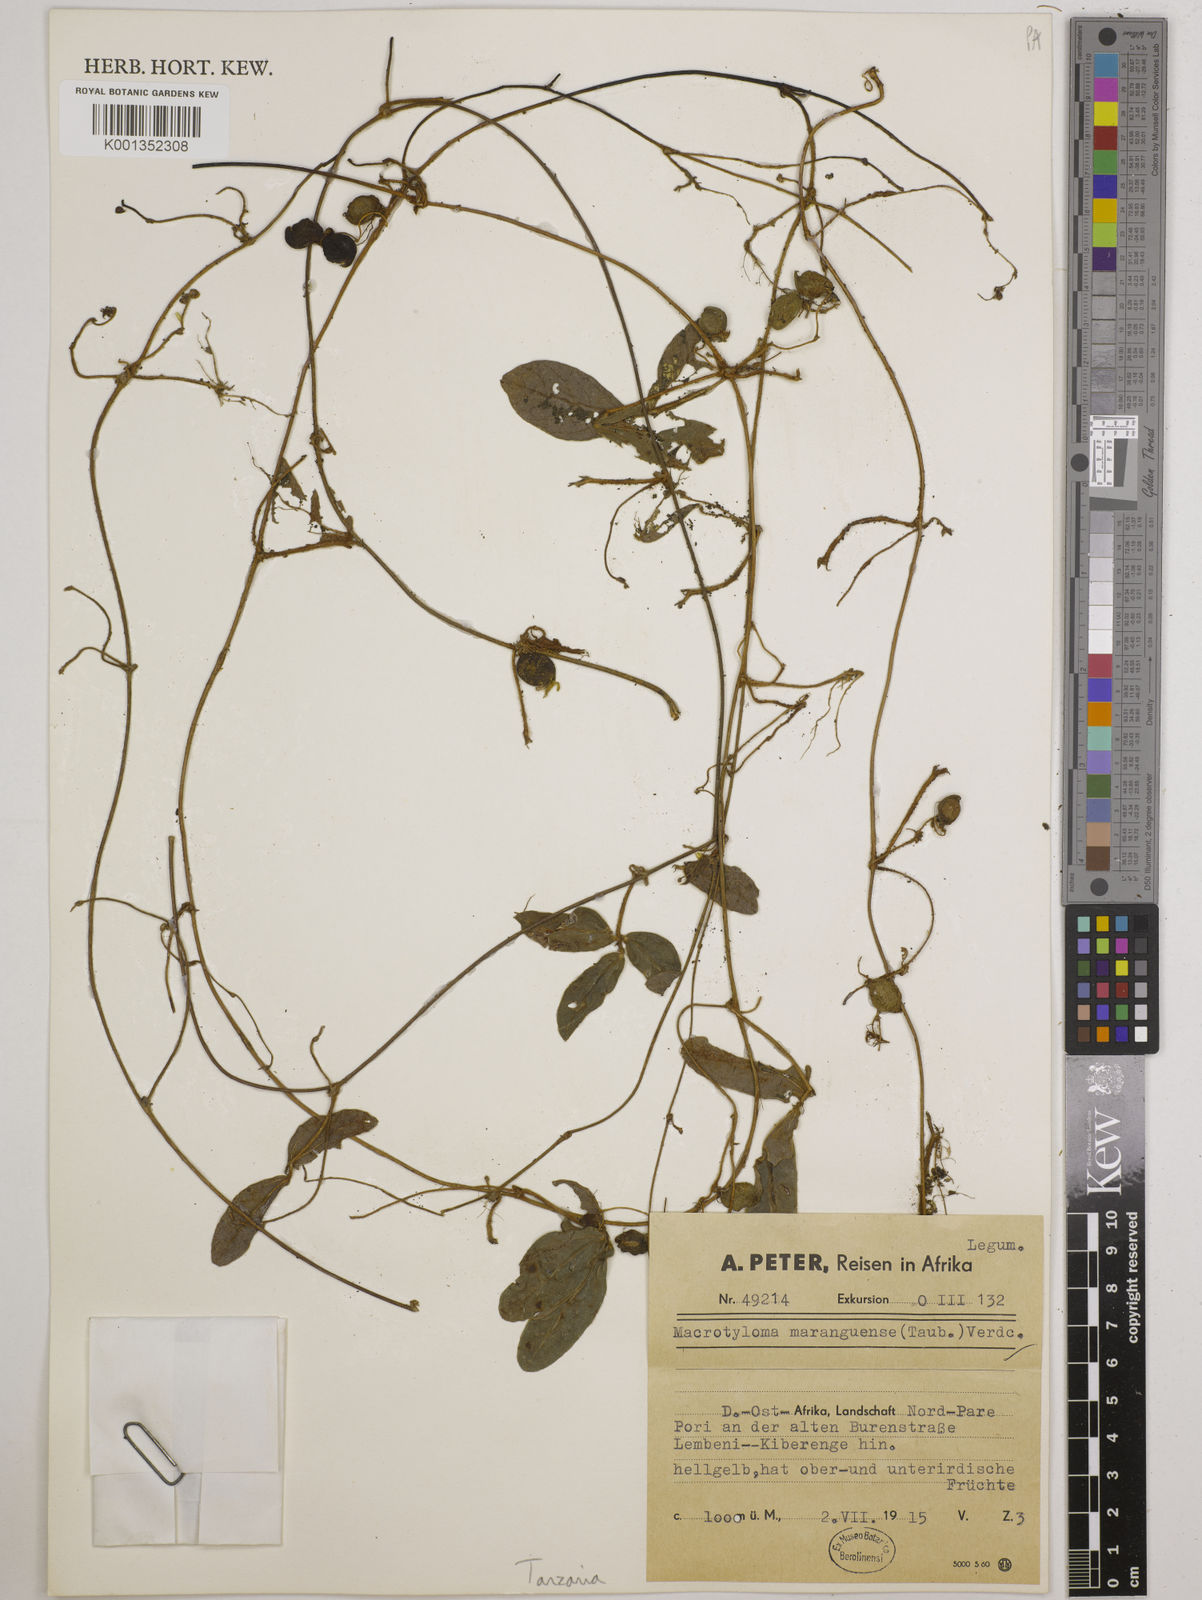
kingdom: Plantae
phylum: Tracheophyta
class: Magnoliopsida
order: Fabales
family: Fabaceae
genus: Macrotyloma
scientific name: Macrotyloma maranguense
